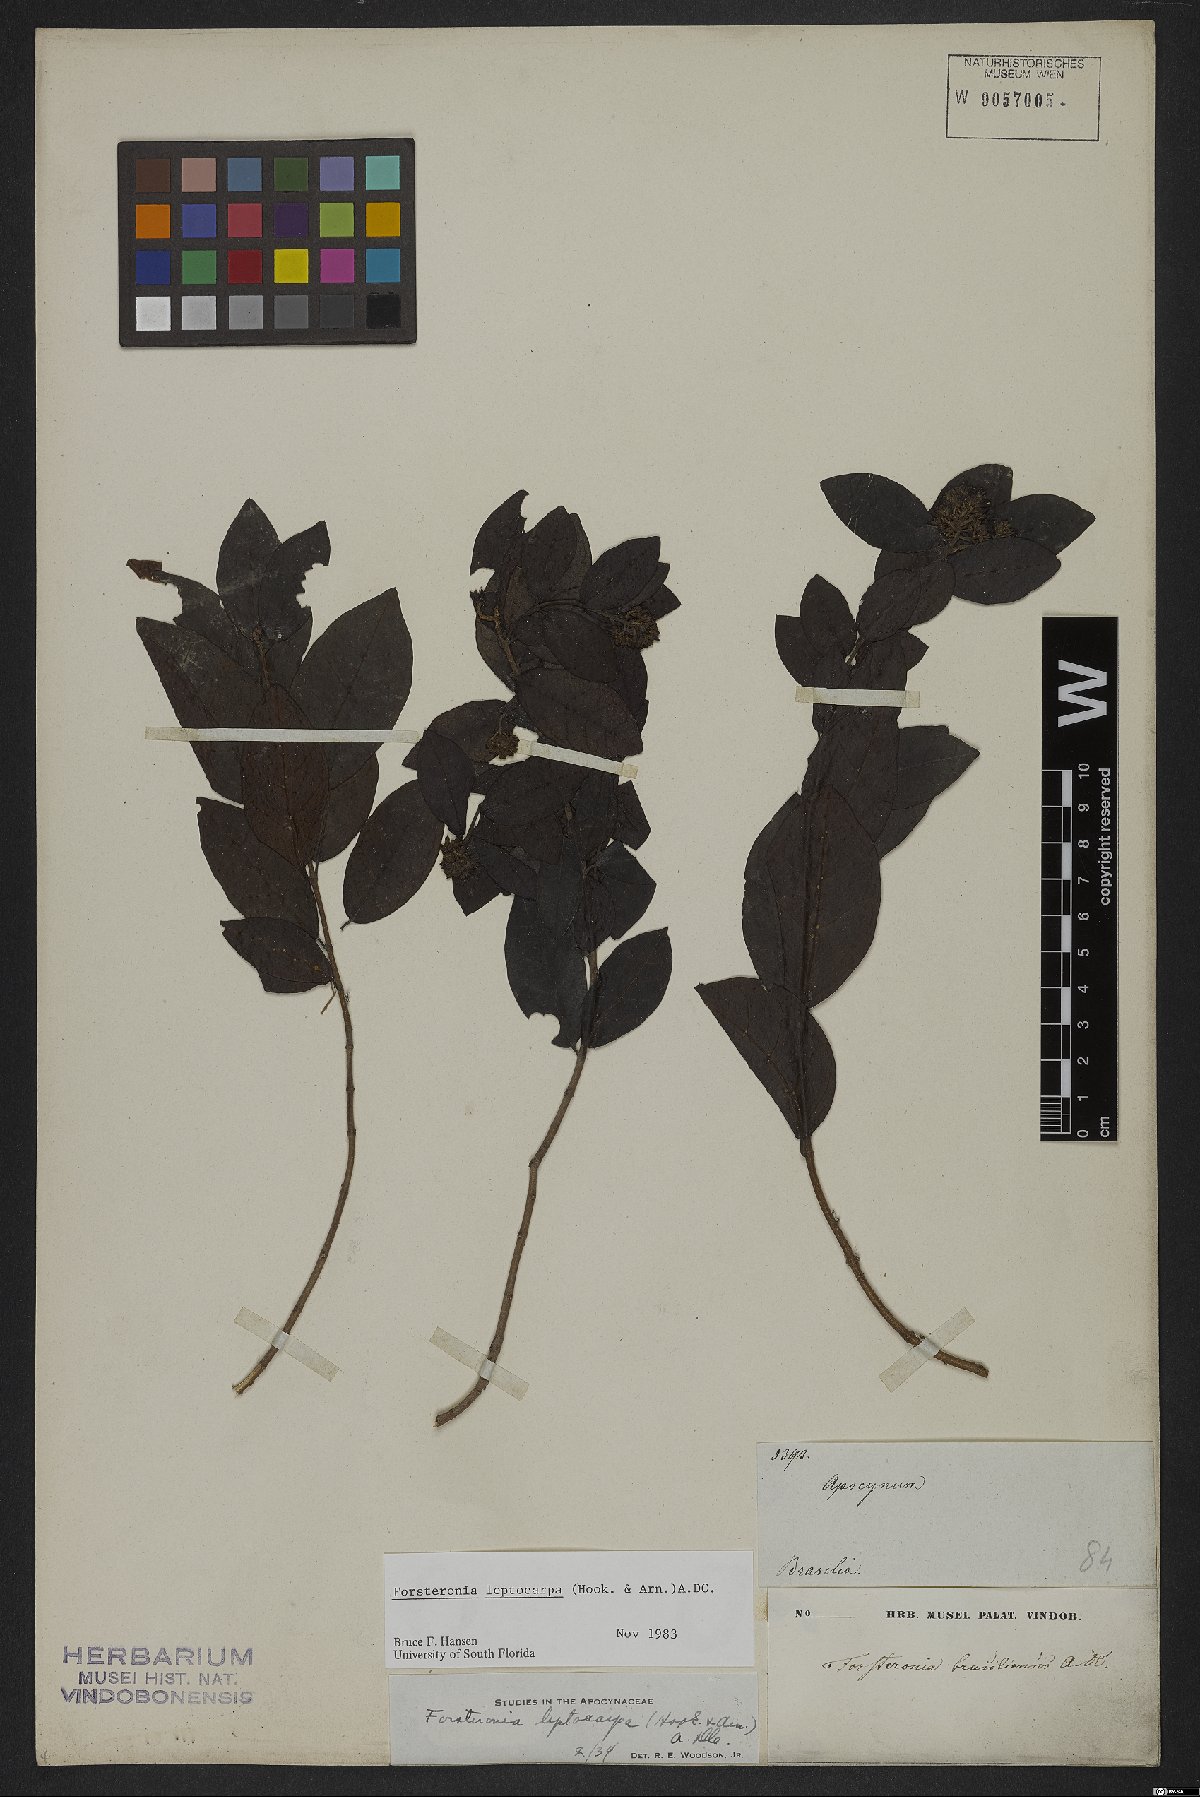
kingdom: Plantae
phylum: Tracheophyta
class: Magnoliopsida
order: Gentianales
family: Apocynaceae
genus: Forsteronia
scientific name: Forsteronia leptocarpa
